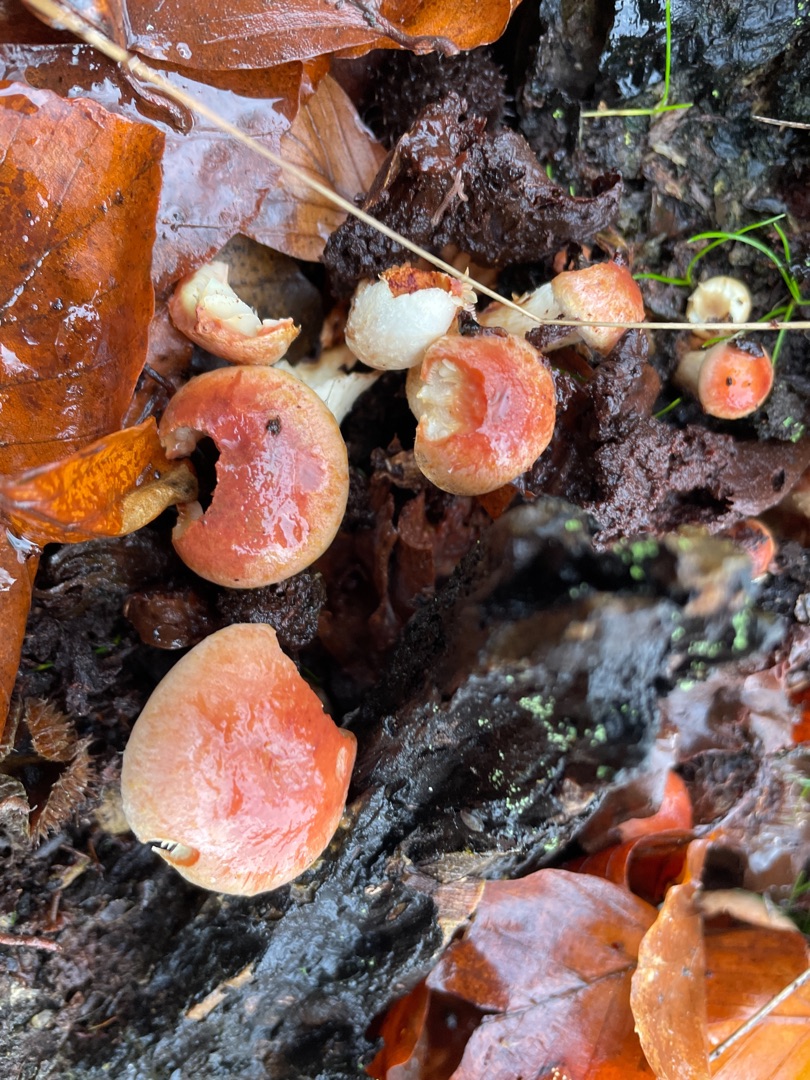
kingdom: Fungi
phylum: Basidiomycota
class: Agaricomycetes
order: Agaricales
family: Strophariaceae
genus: Hypholoma
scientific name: Hypholoma lateritium
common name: Teglrød svovlhat
